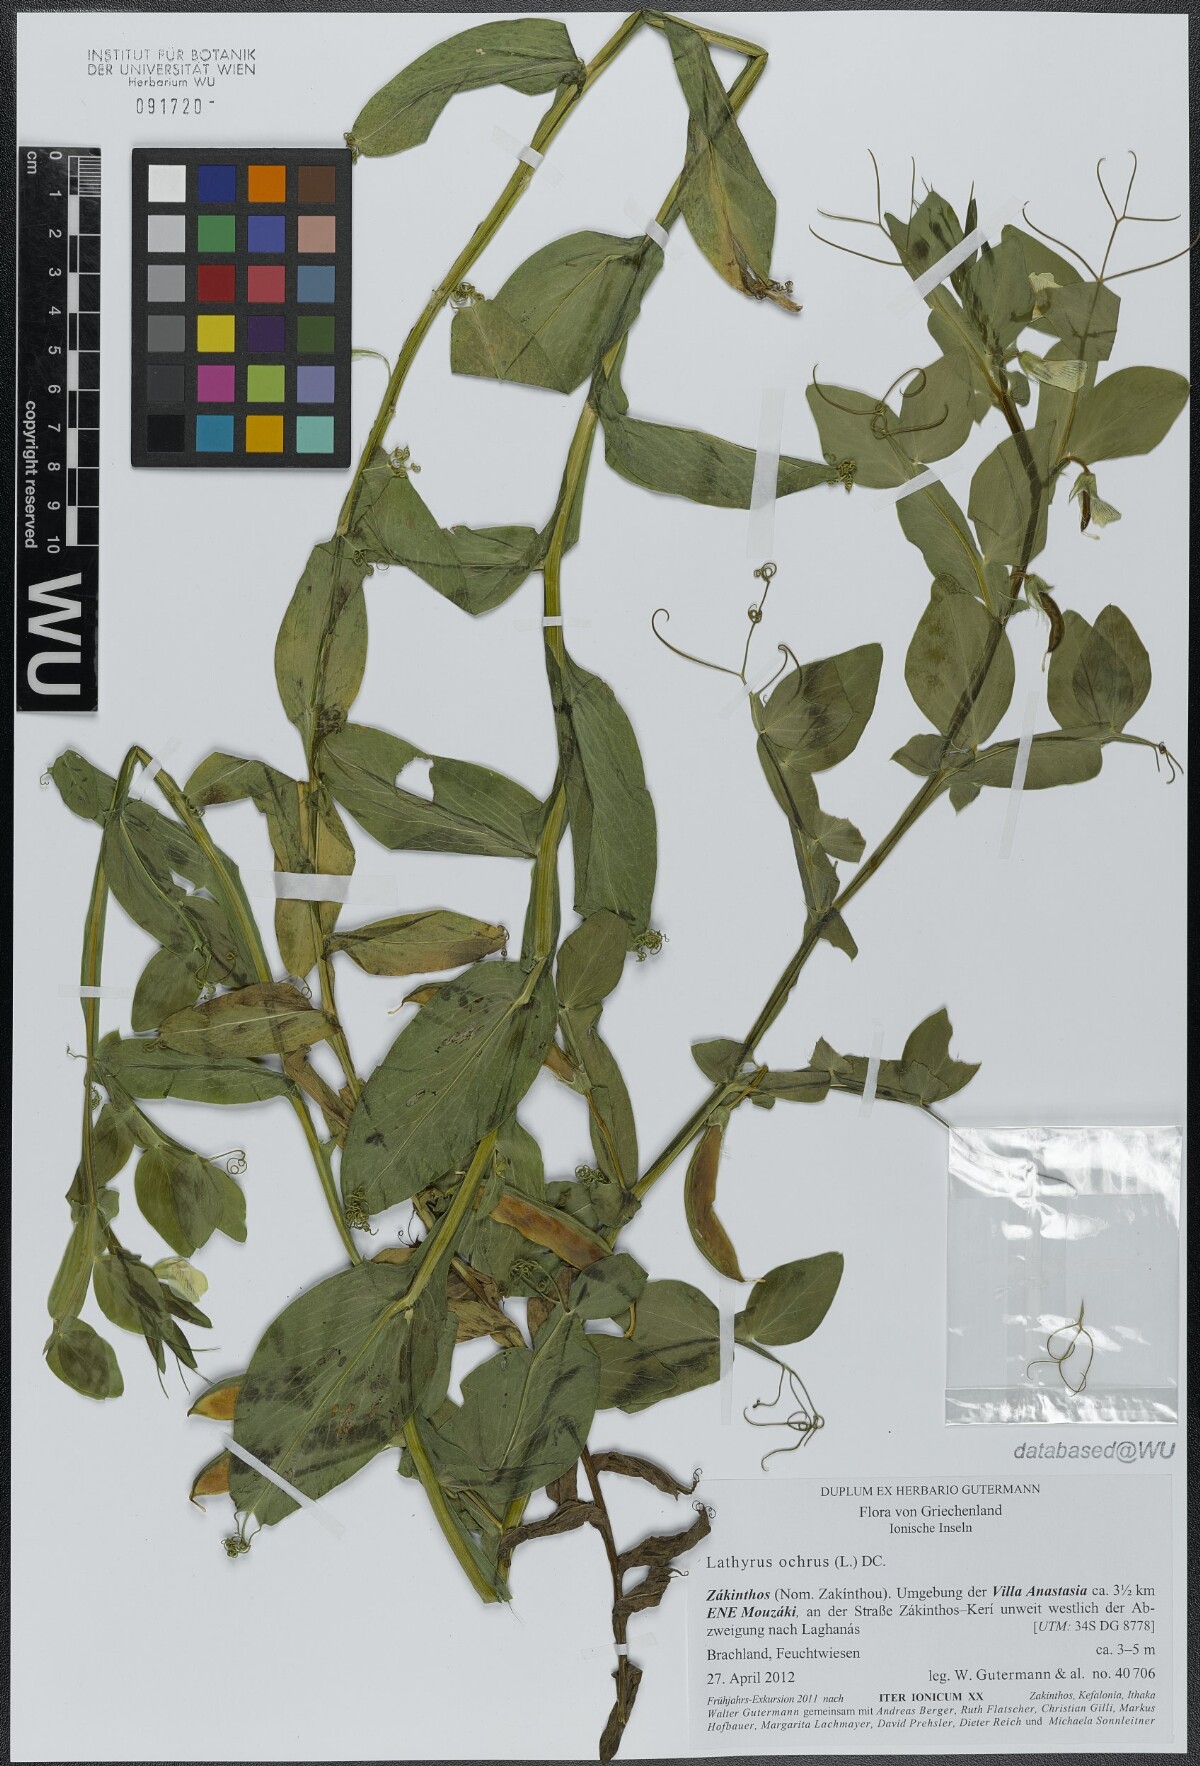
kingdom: Plantae
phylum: Tracheophyta
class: Magnoliopsida
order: Fabales
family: Fabaceae
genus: Lathyrus
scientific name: Lathyrus ochrus
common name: Winged vetchling
